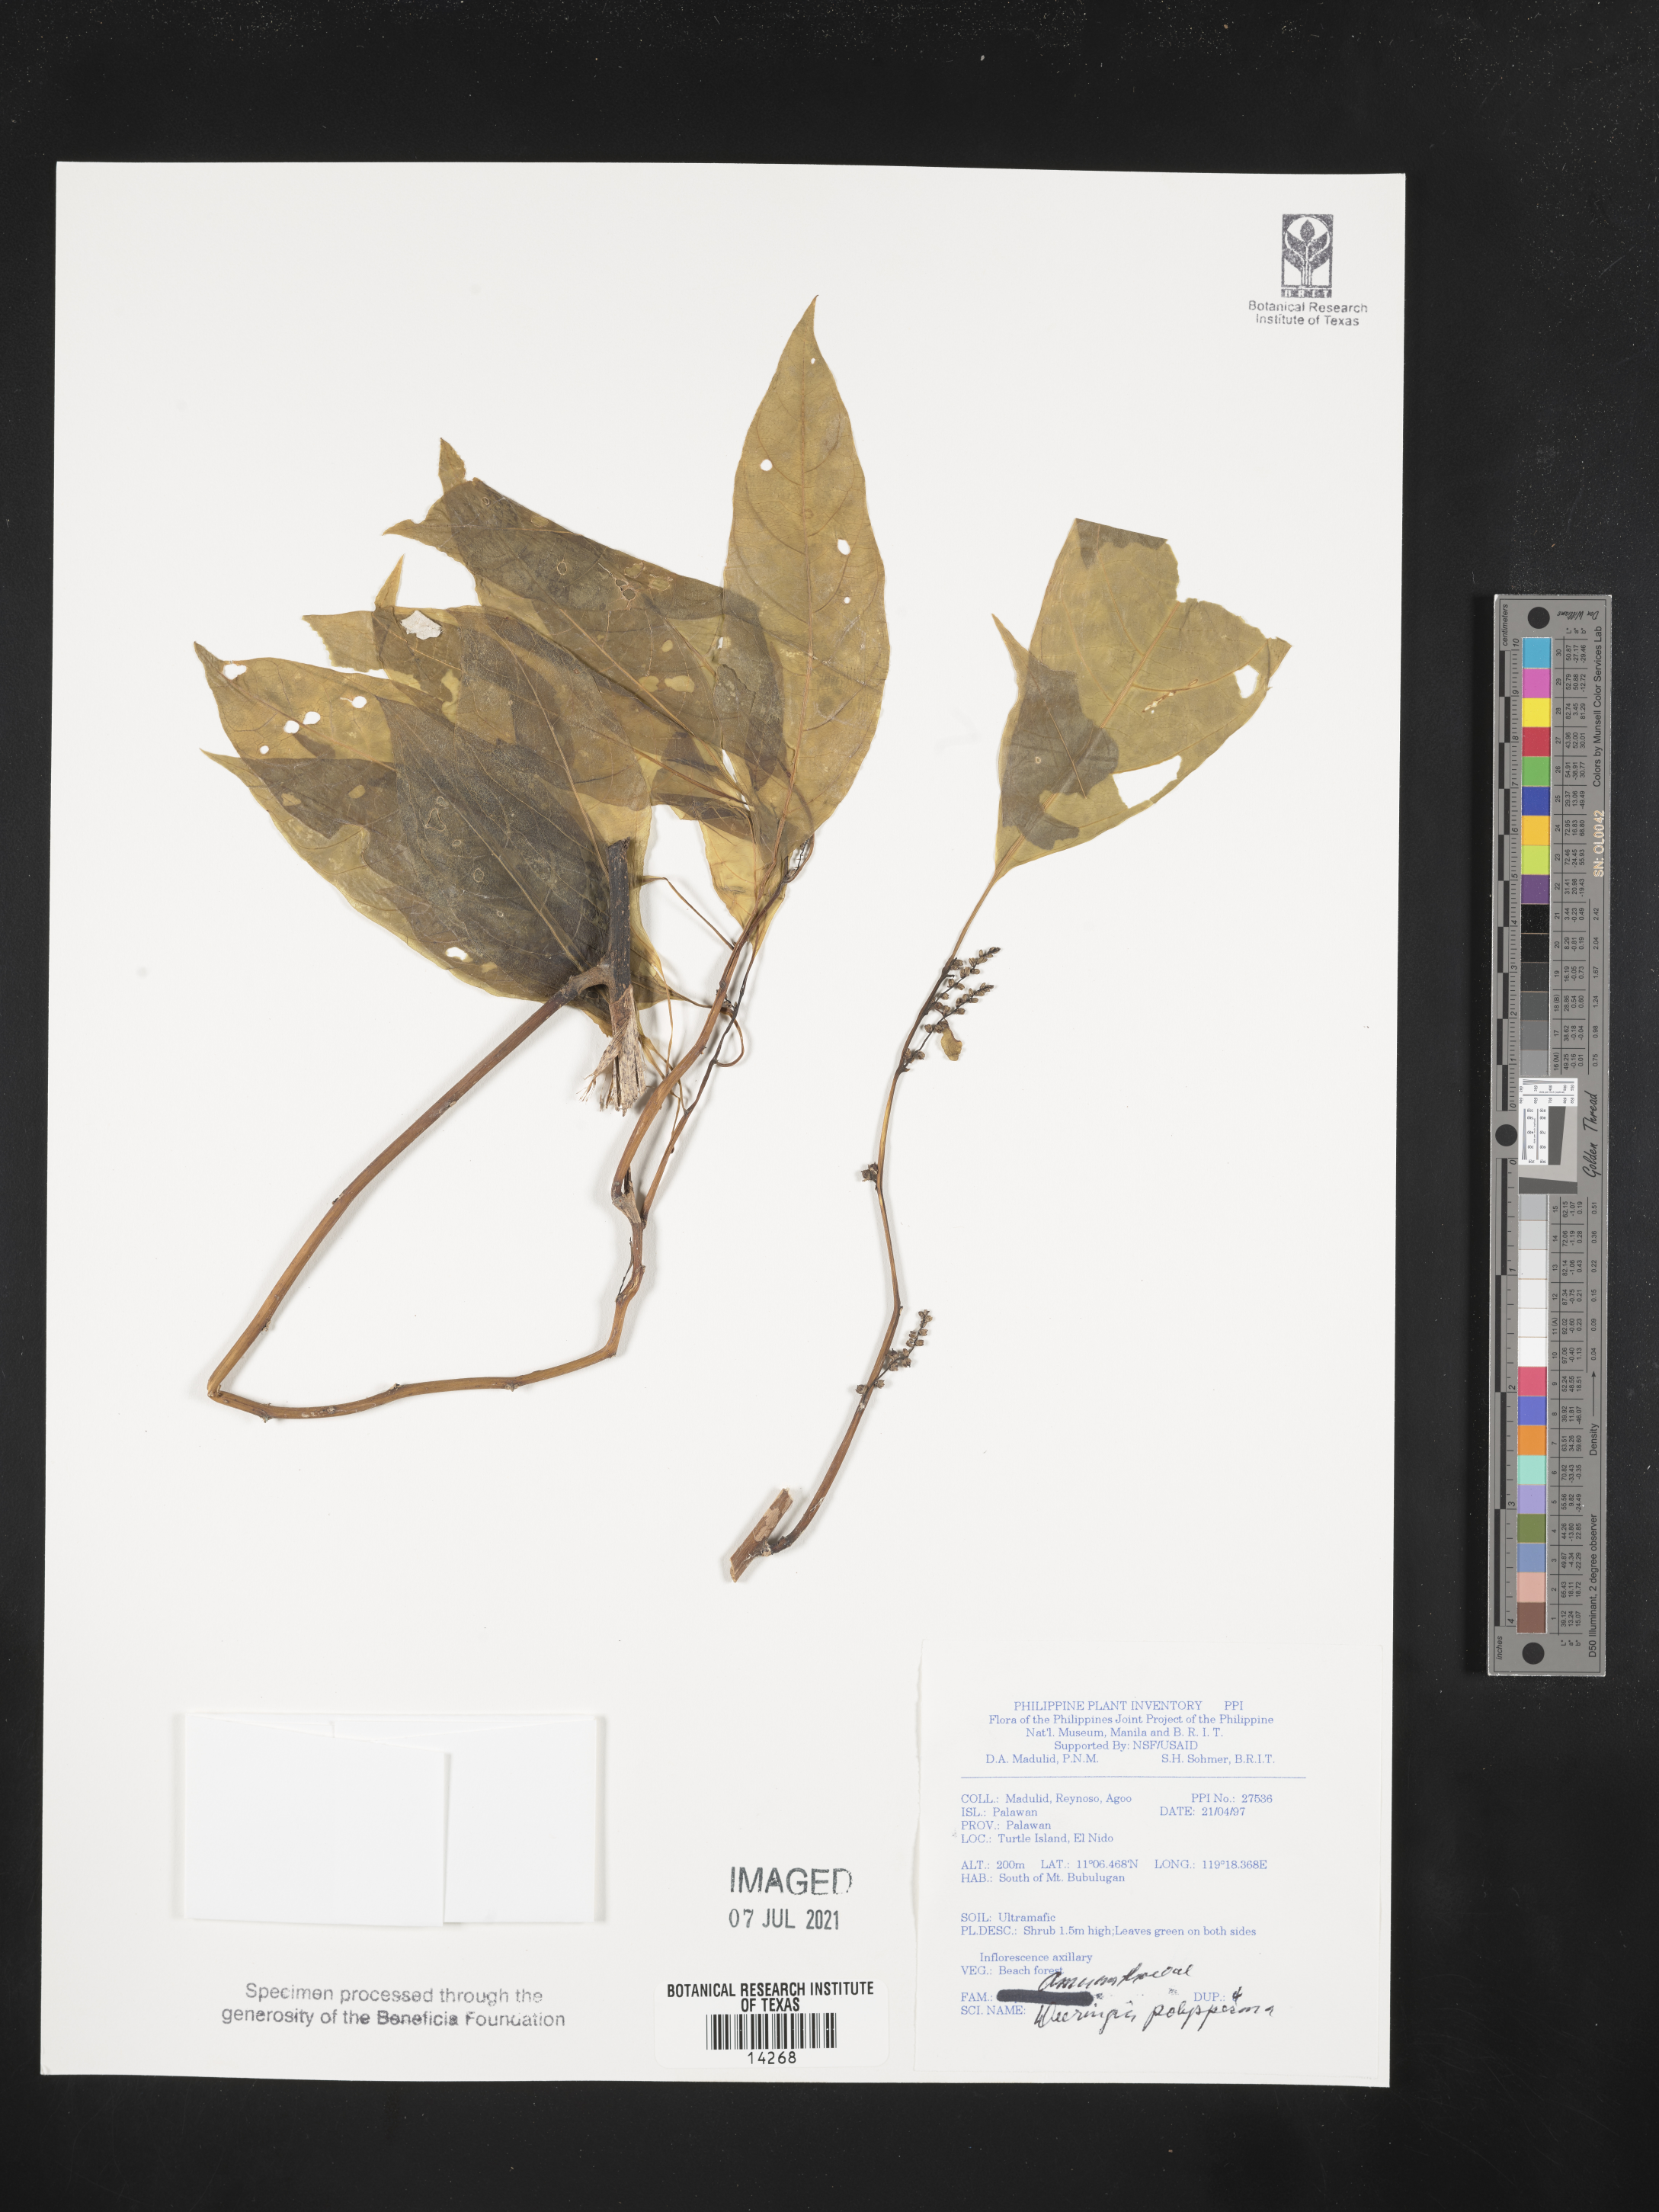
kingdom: Plantae
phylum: Tracheophyta
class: Magnoliopsida
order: Caryophyllales
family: Amaranthaceae
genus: Deeringia
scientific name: Deeringia polysperma
